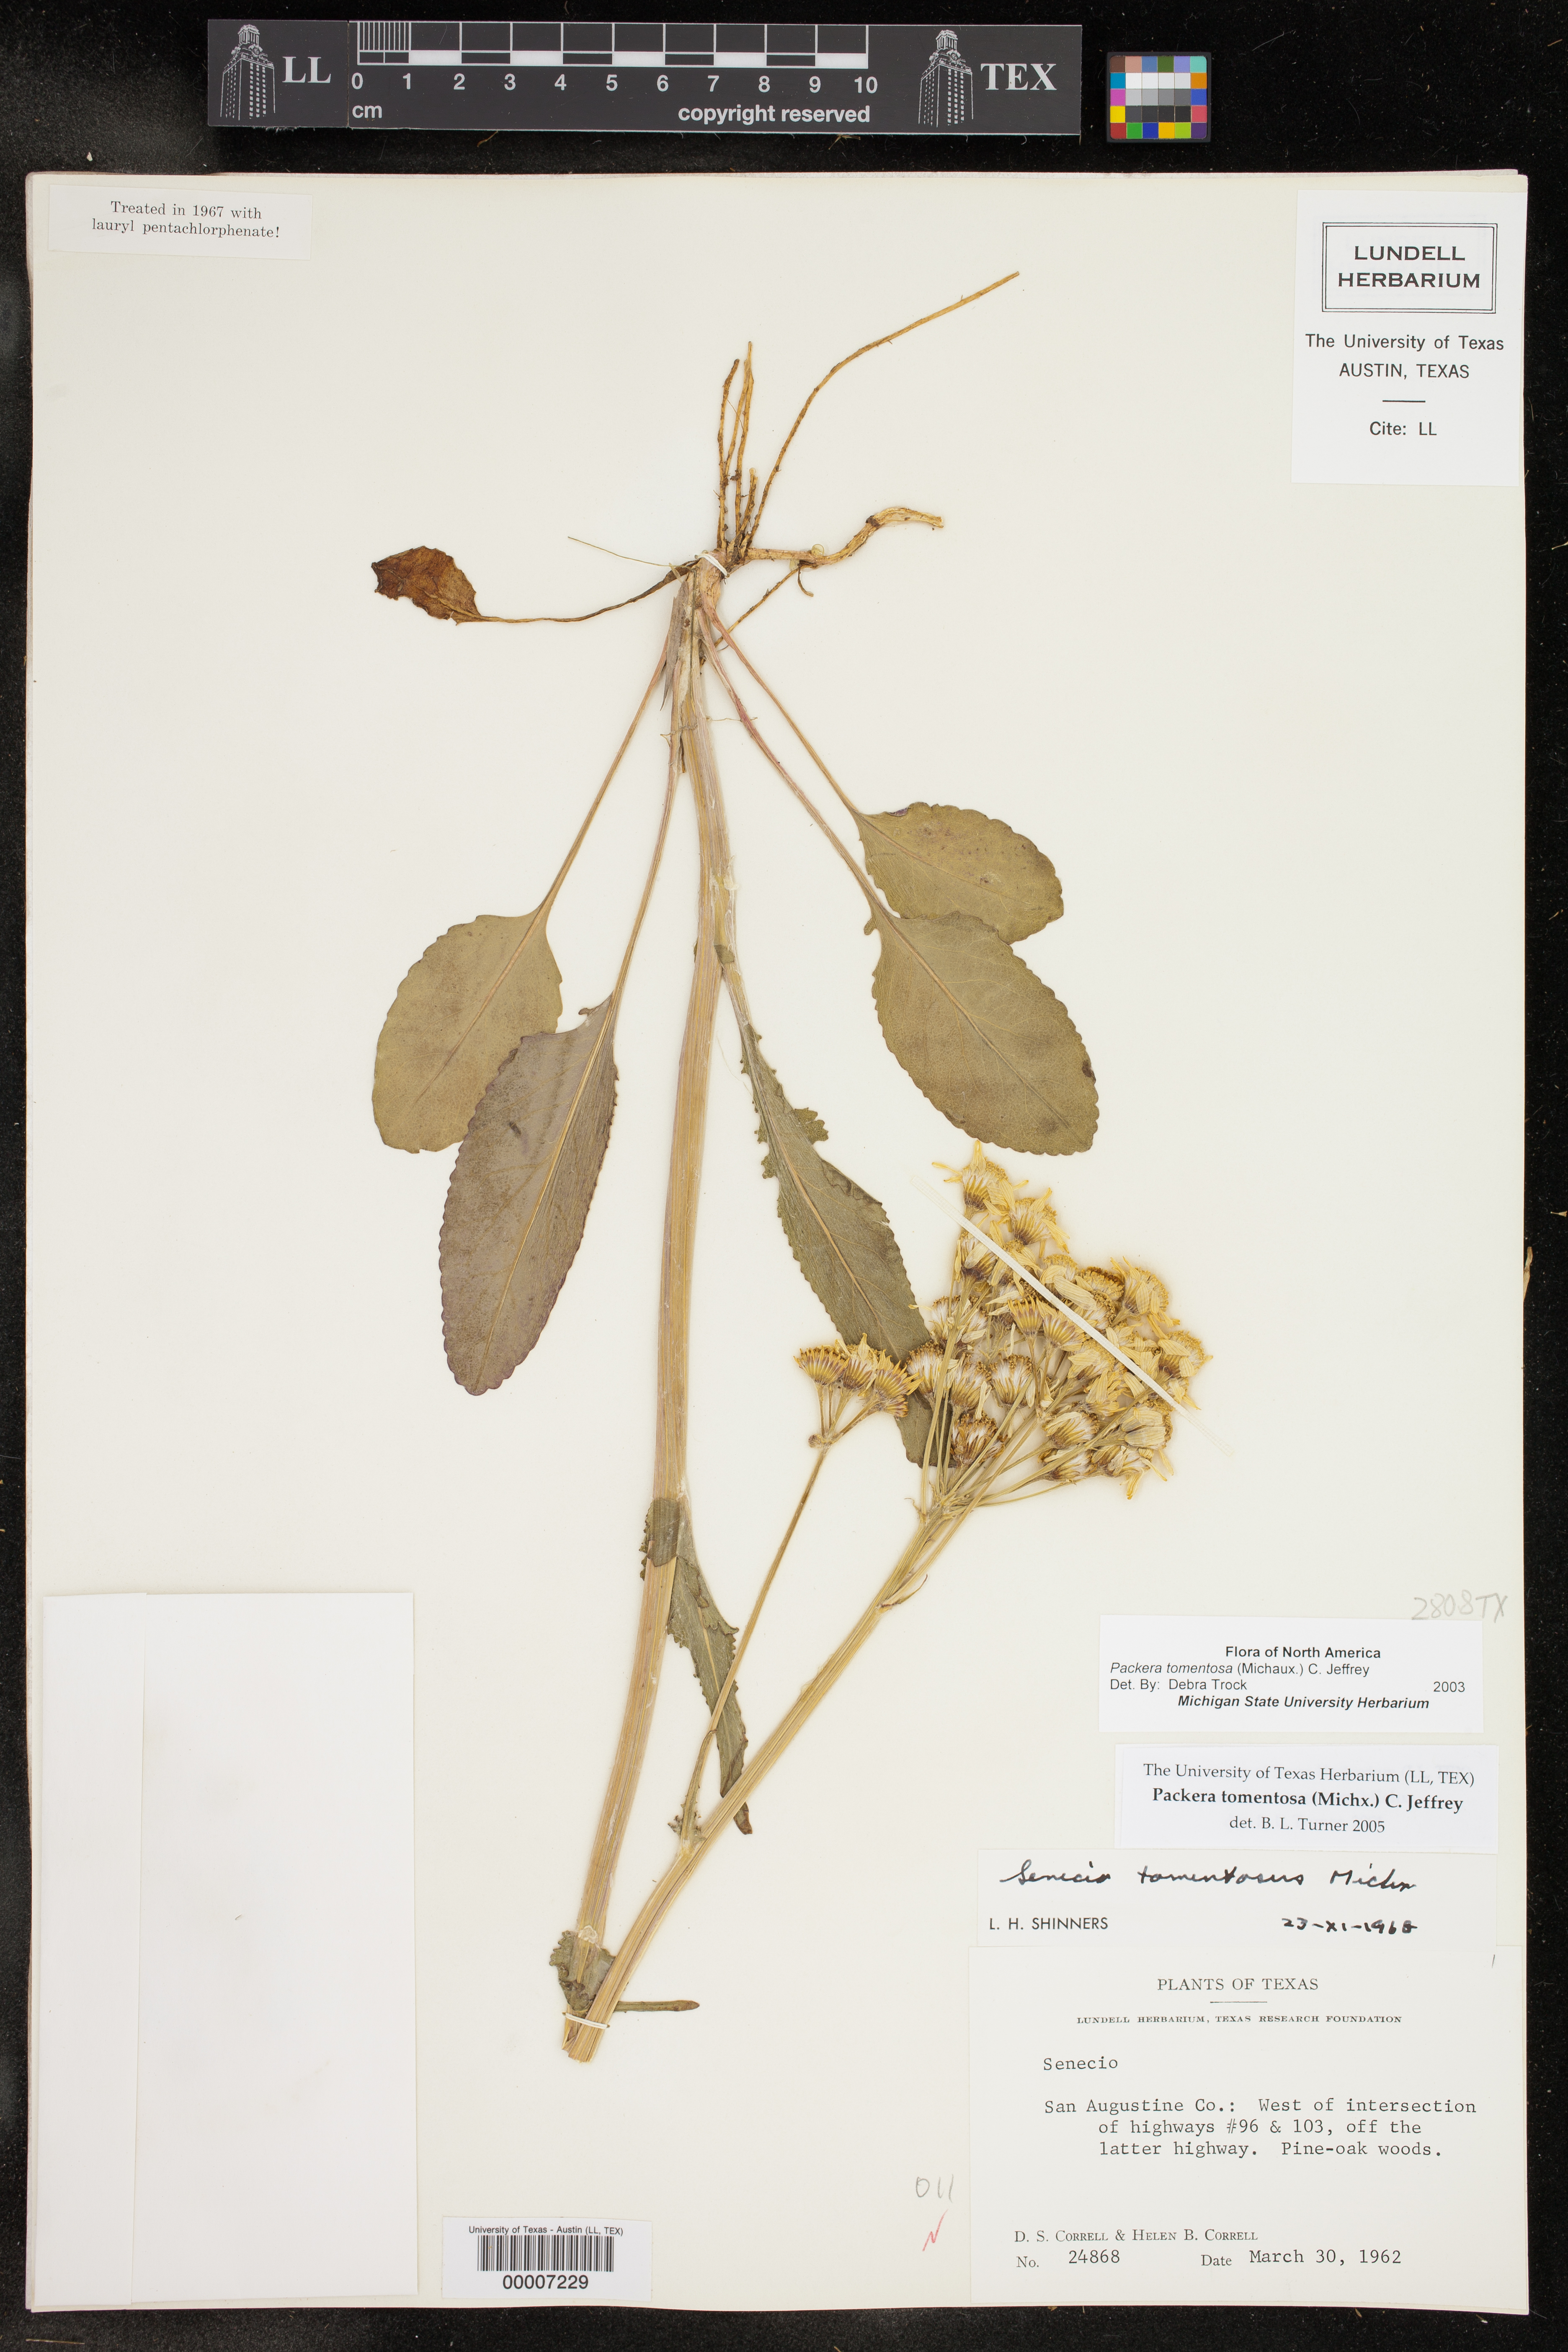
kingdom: Plantae
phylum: Tracheophyta
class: Magnoliopsida
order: Asterales
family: Asteraceae
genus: Packera
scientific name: Packera dubia
